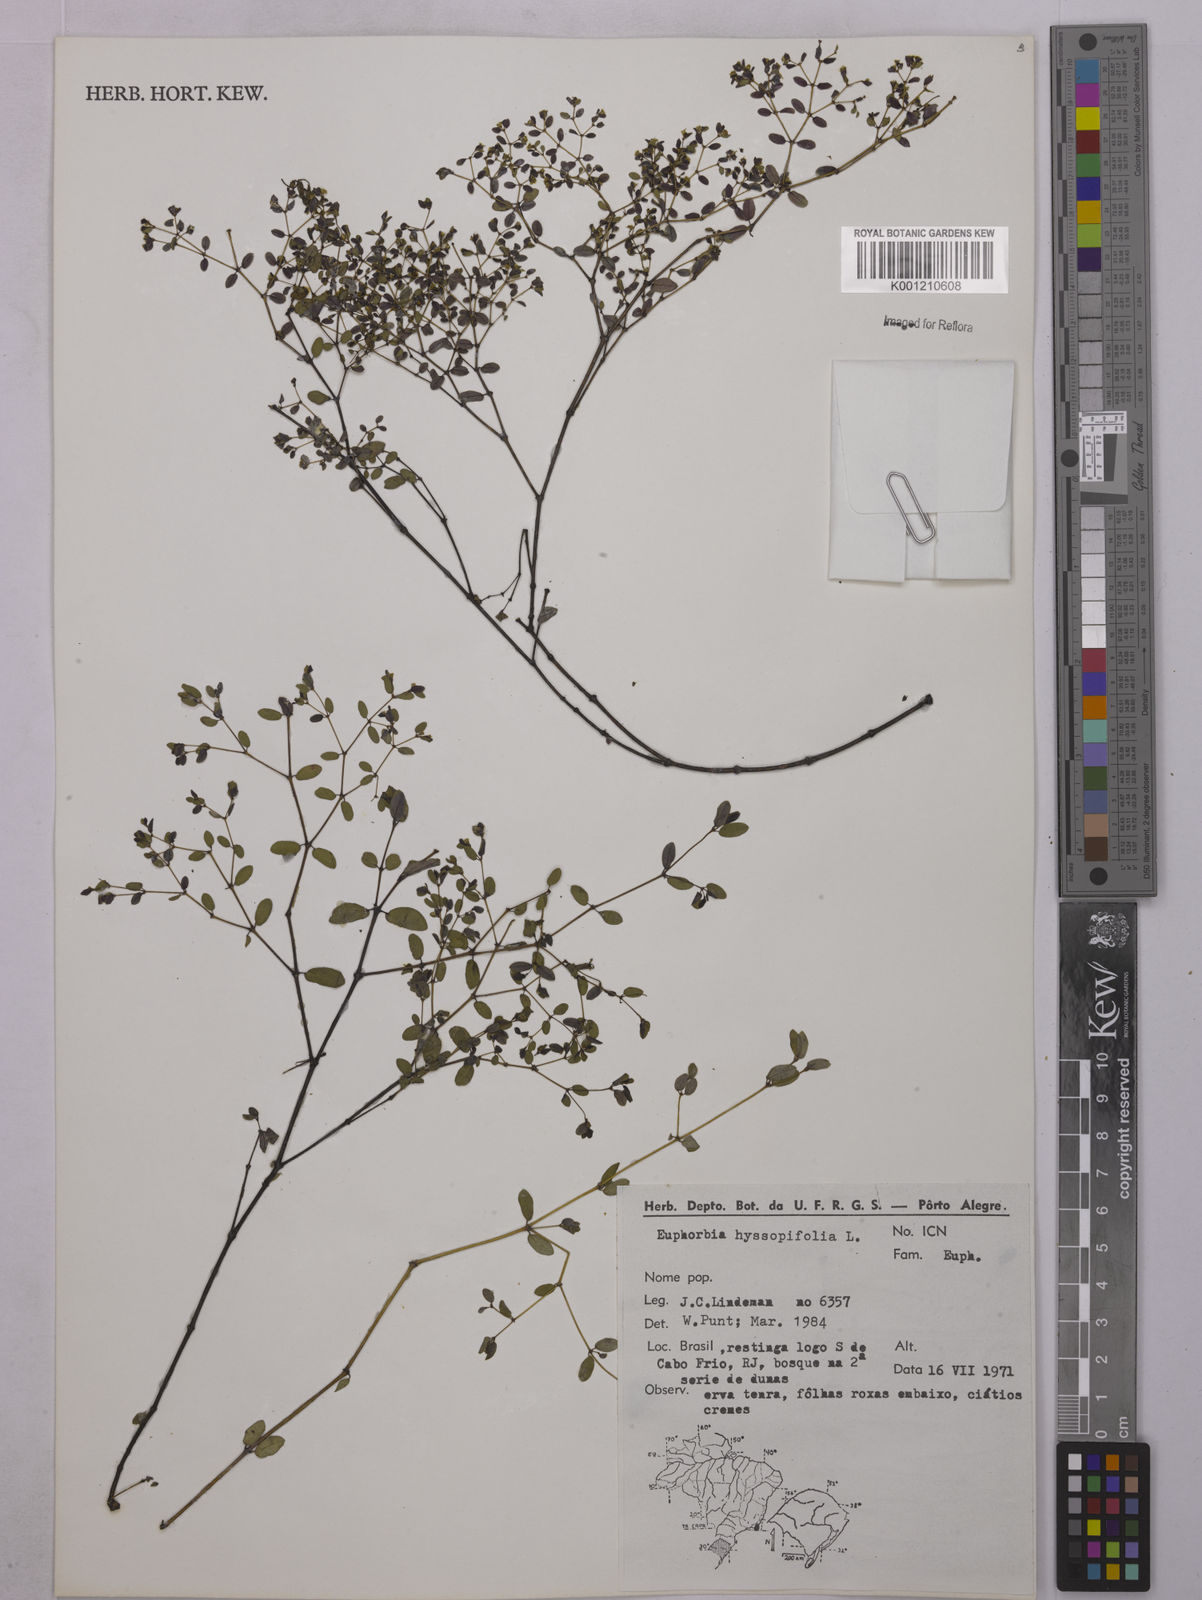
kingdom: Plantae
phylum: Tracheophyta
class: Magnoliopsida
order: Malpighiales
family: Euphorbiaceae
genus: Euphorbia
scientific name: Euphorbia hyssopifolia
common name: Hyssopleaf sandmat
